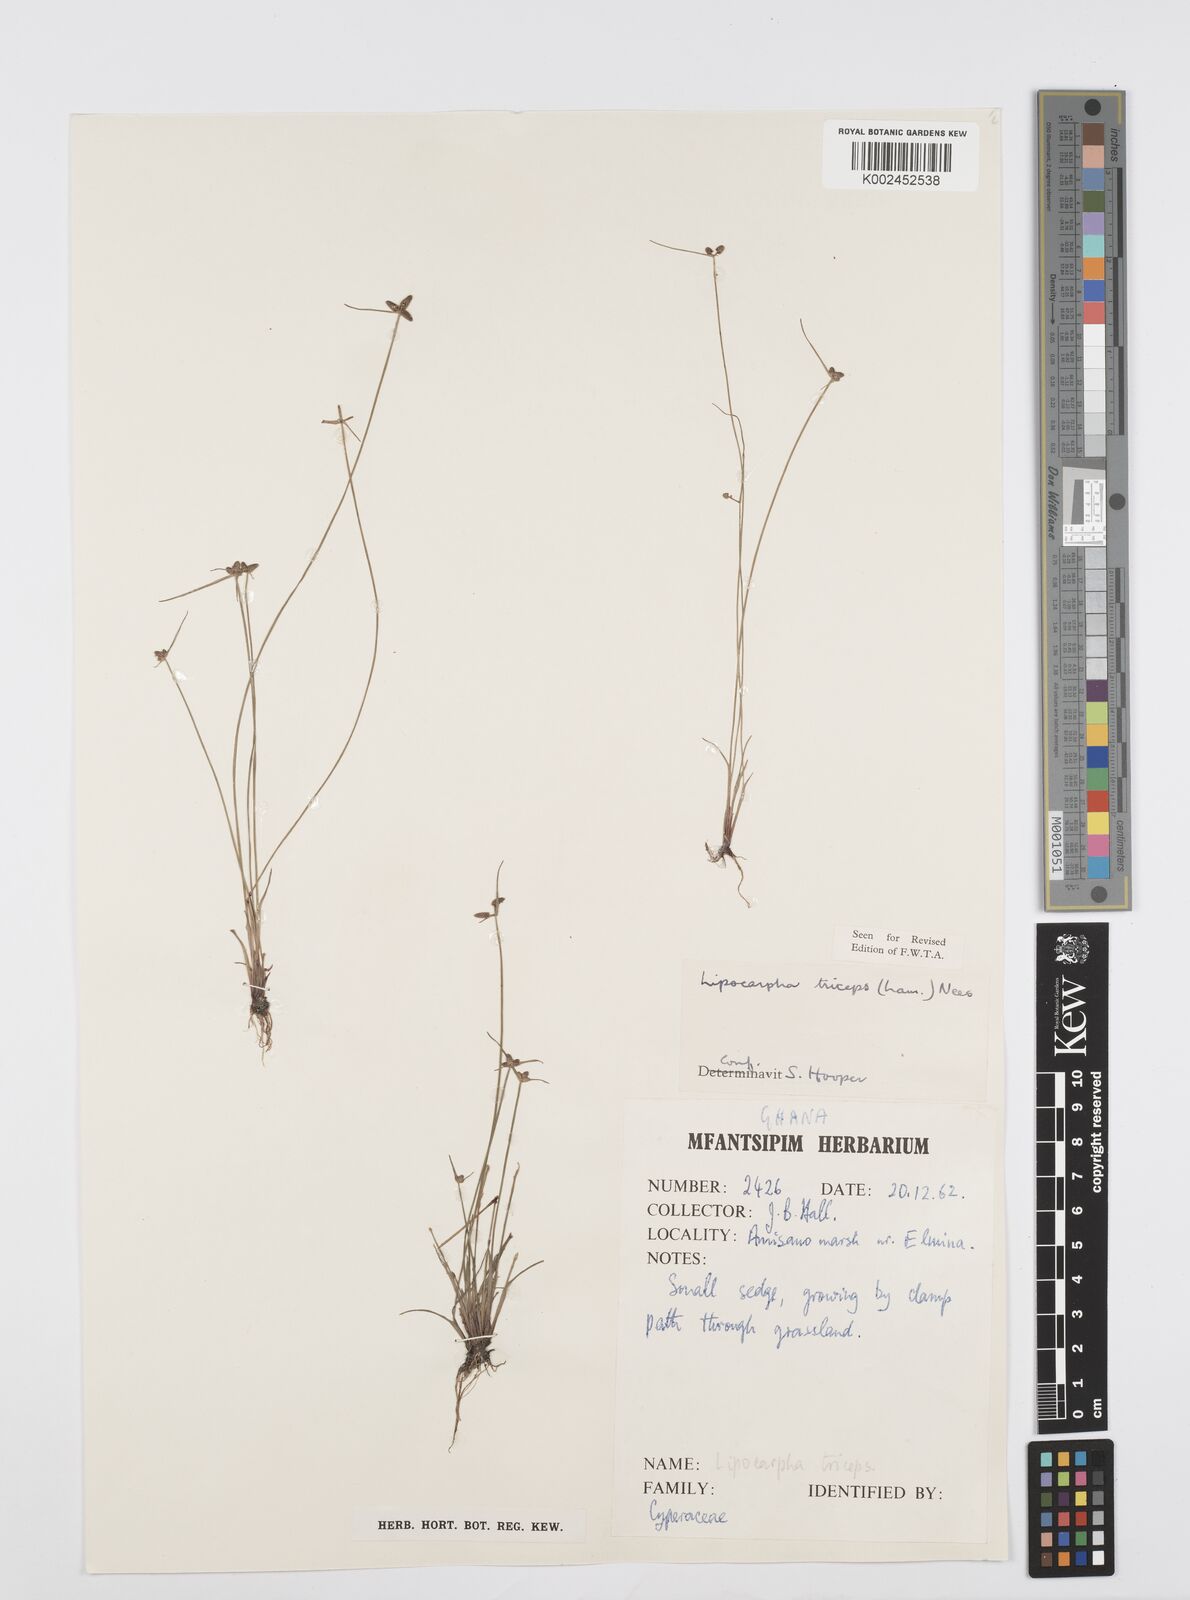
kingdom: Plantae
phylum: Tracheophyta
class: Liliopsida
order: Poales
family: Cyperaceae
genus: Cyperus
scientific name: Cyperus filiformis
